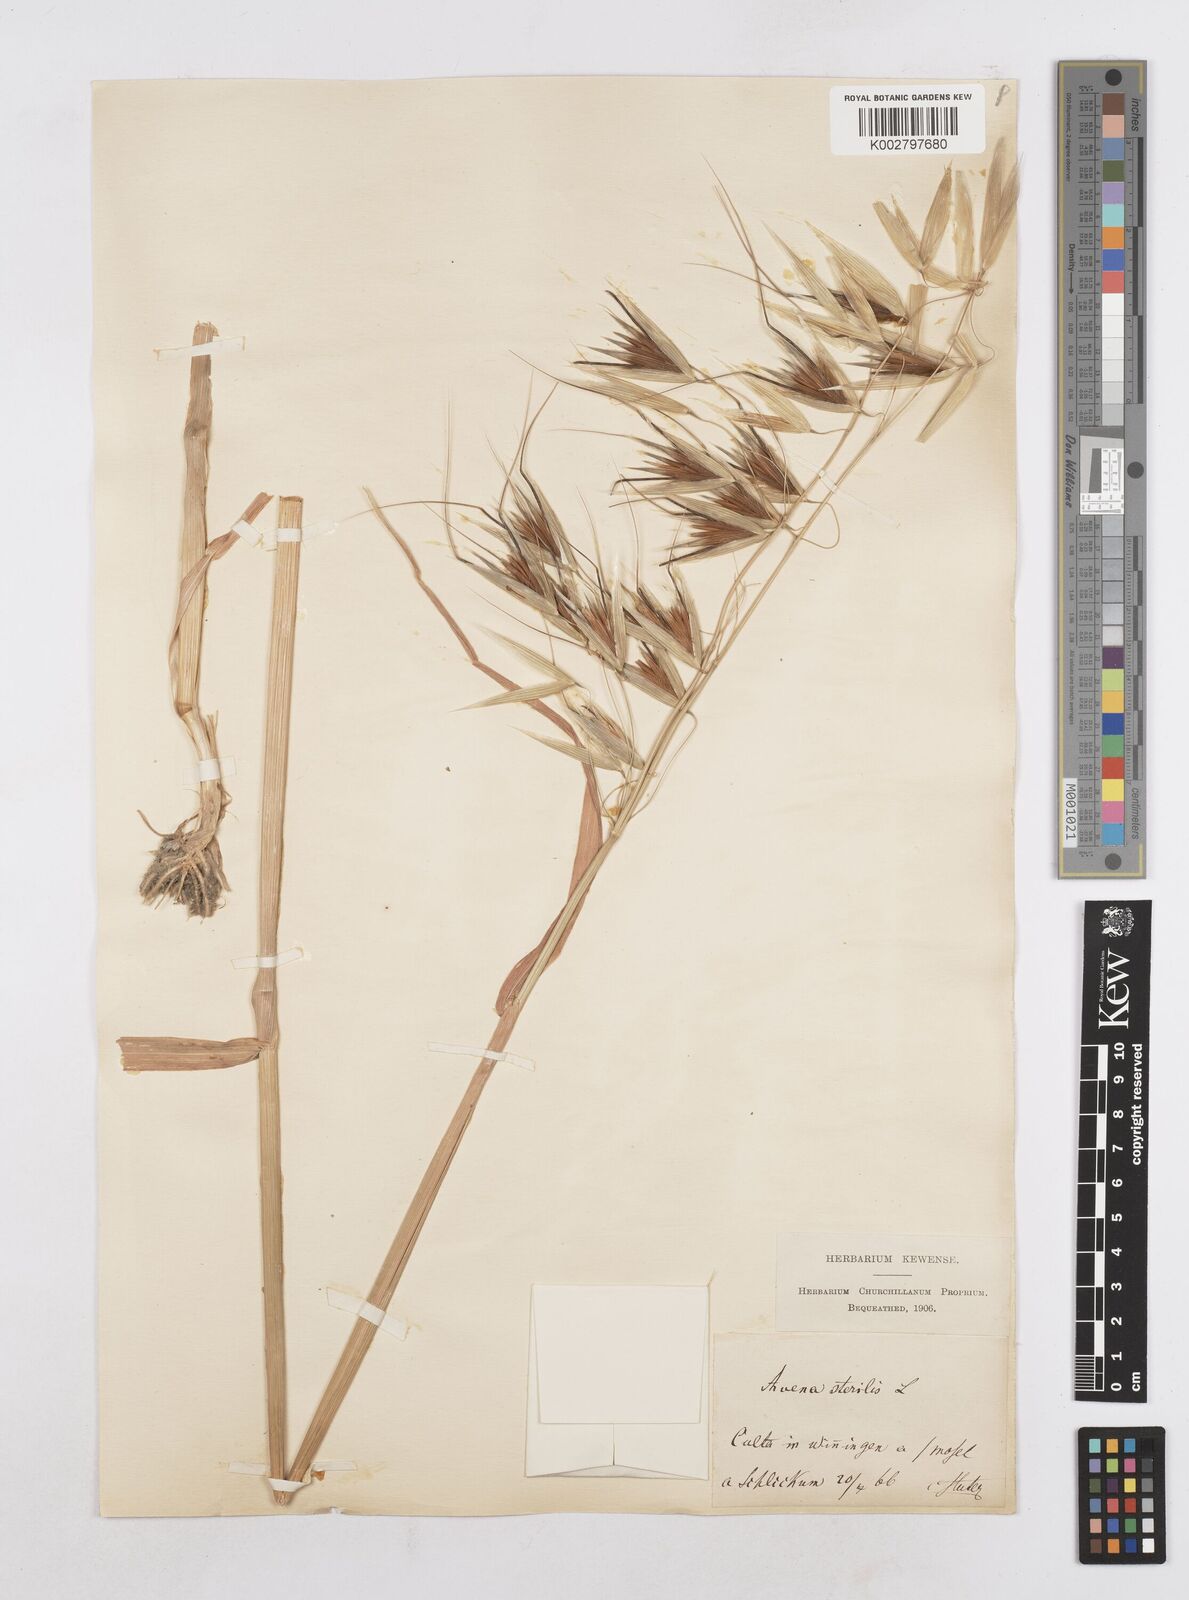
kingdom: Plantae
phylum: Tracheophyta
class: Liliopsida
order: Poales
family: Poaceae
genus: Avena
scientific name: Avena sterilis
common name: Animated oat
